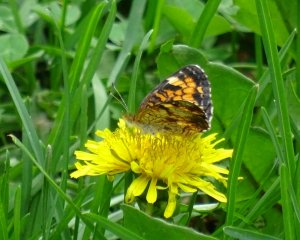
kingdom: Animalia
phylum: Arthropoda
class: Insecta
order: Lepidoptera
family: Nymphalidae
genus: Phyciodes
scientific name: Phyciodes tharos
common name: Pearl Crescent
